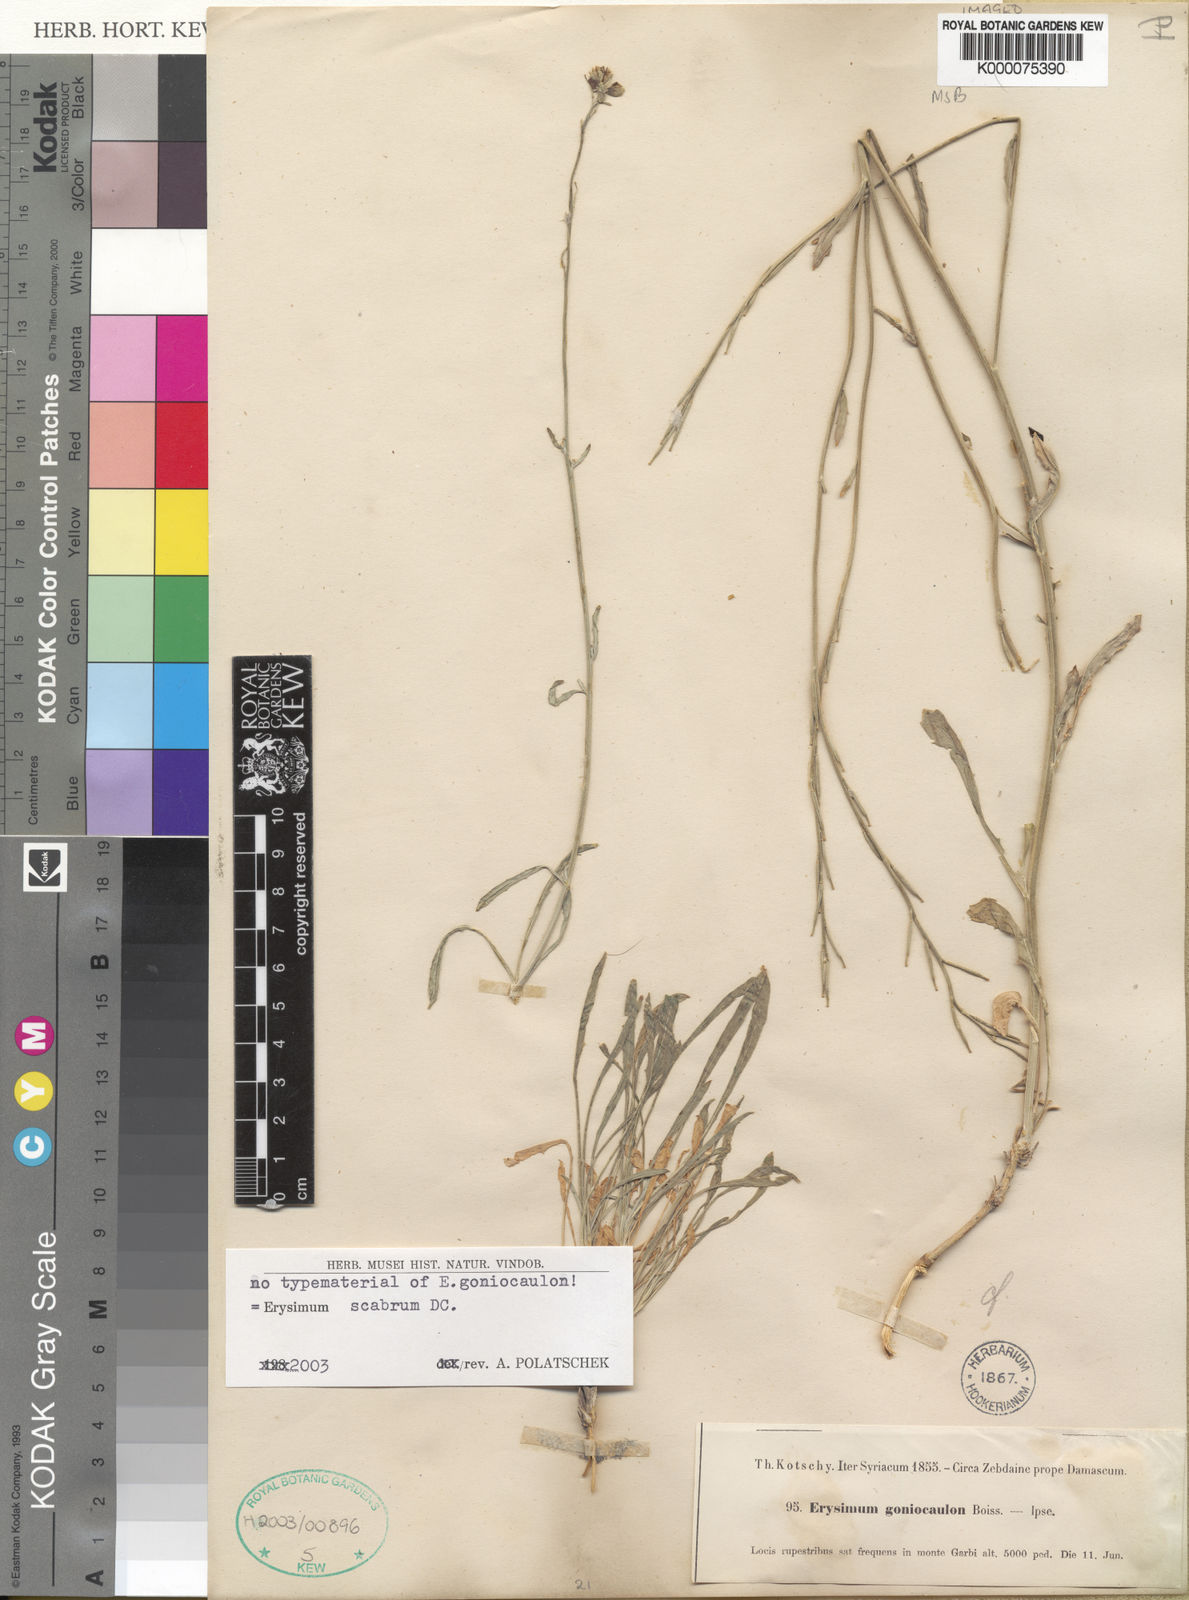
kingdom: Plantae
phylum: Tracheophyta
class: Magnoliopsida
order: Brassicales
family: Brassicaceae
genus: Erysimum
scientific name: Erysimum scabrum
